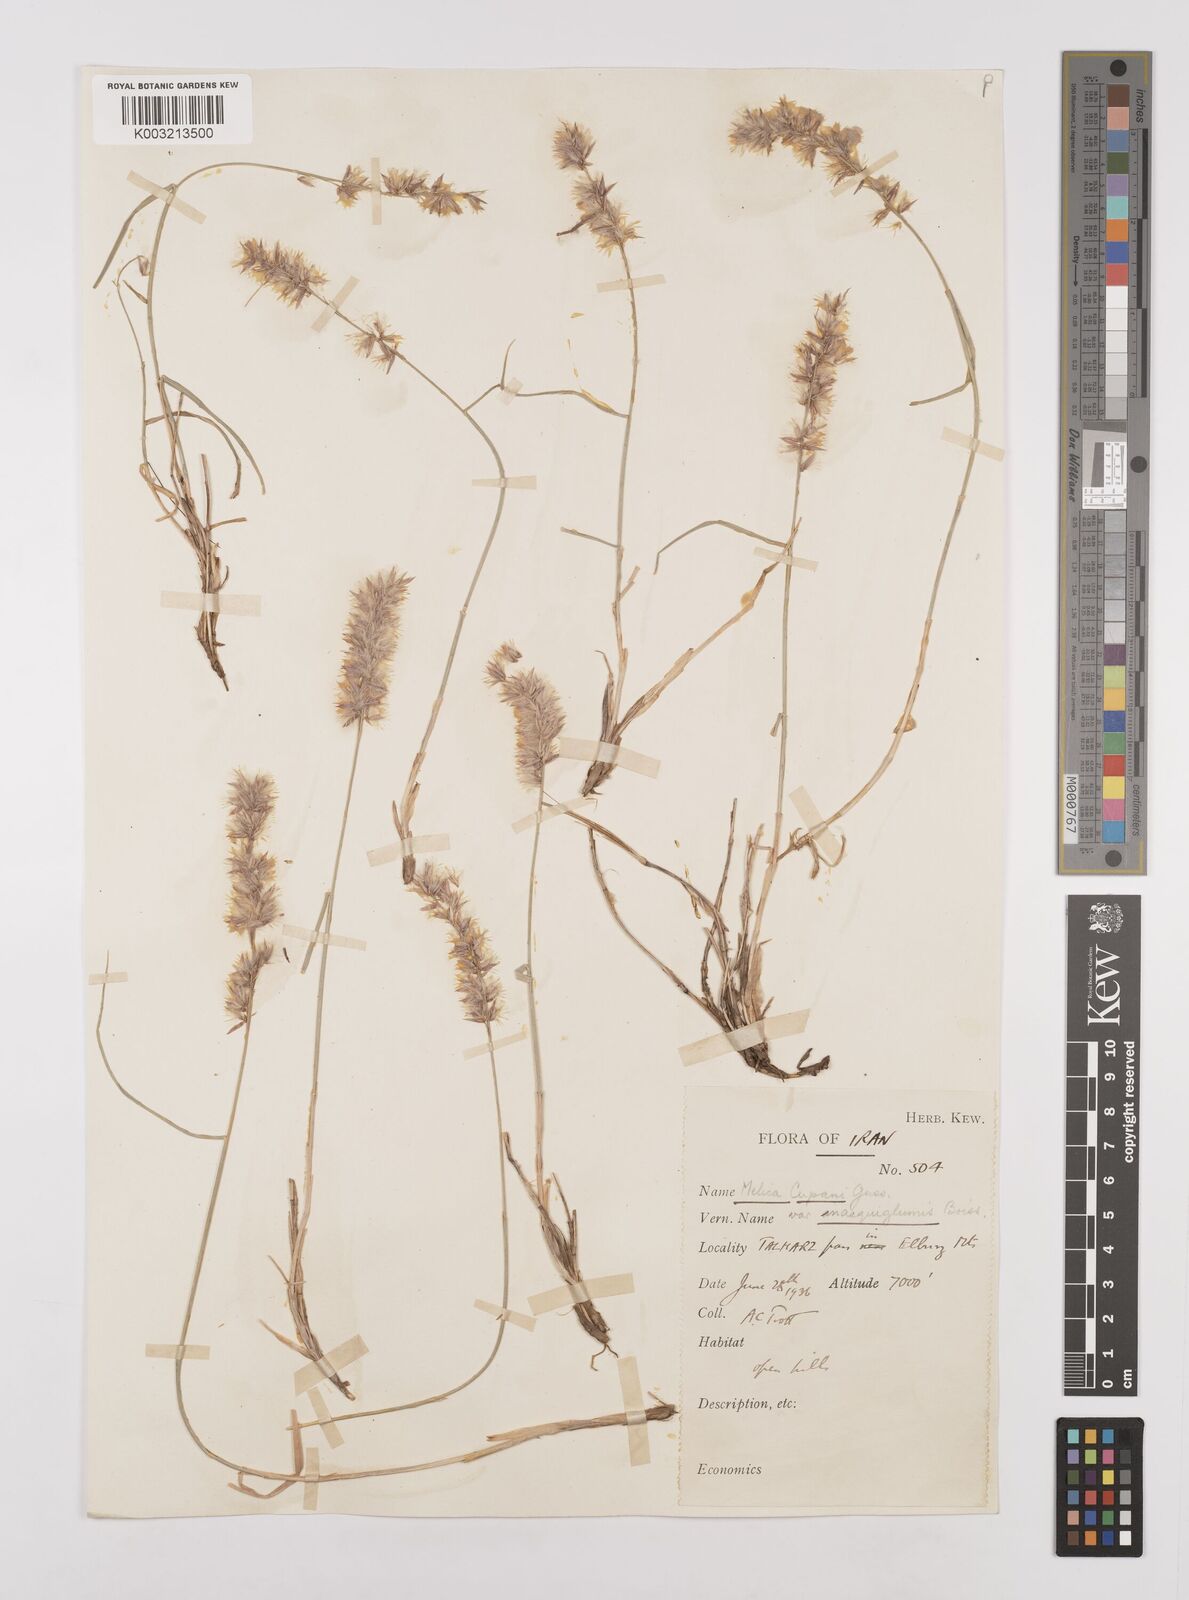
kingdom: Plantae
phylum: Tracheophyta
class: Liliopsida
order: Poales
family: Poaceae
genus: Melica
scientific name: Melica persica
